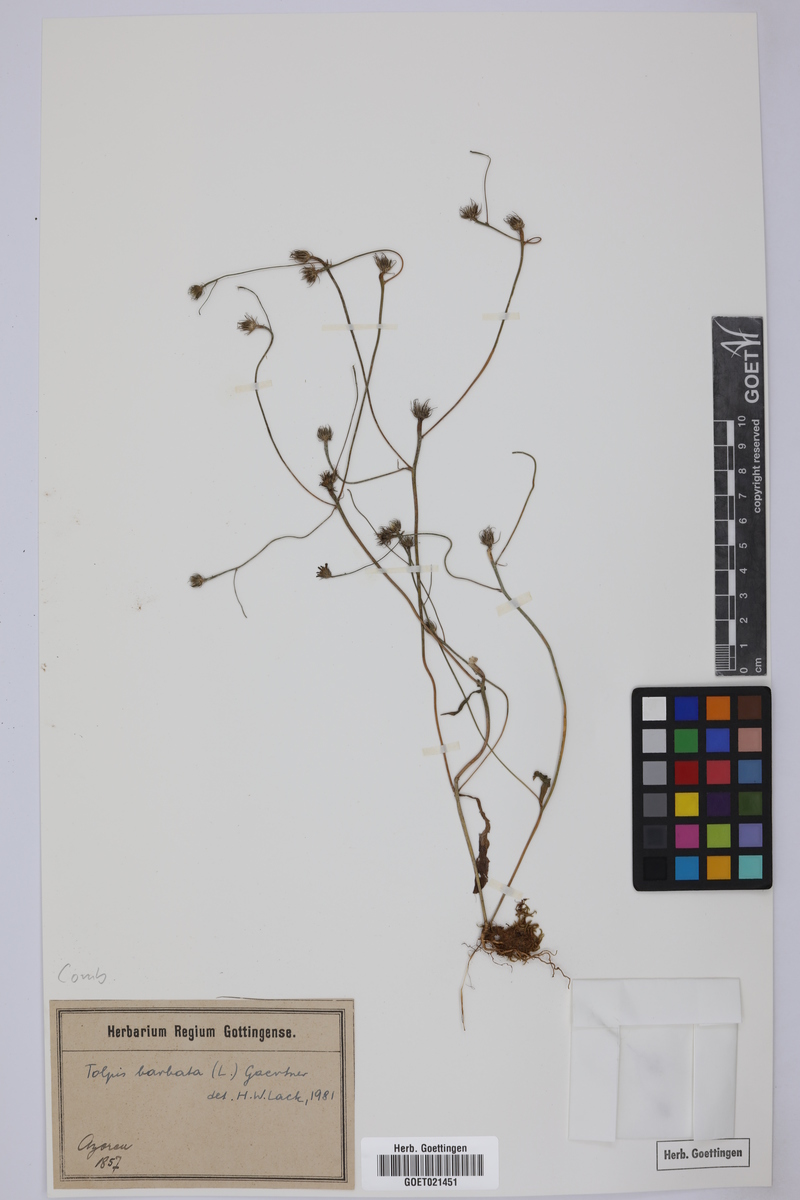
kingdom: Plantae
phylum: Tracheophyta
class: Magnoliopsida
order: Asterales
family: Asteraceae
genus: Tolpis
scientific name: Tolpis barbata
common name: Yellow hawkweed
